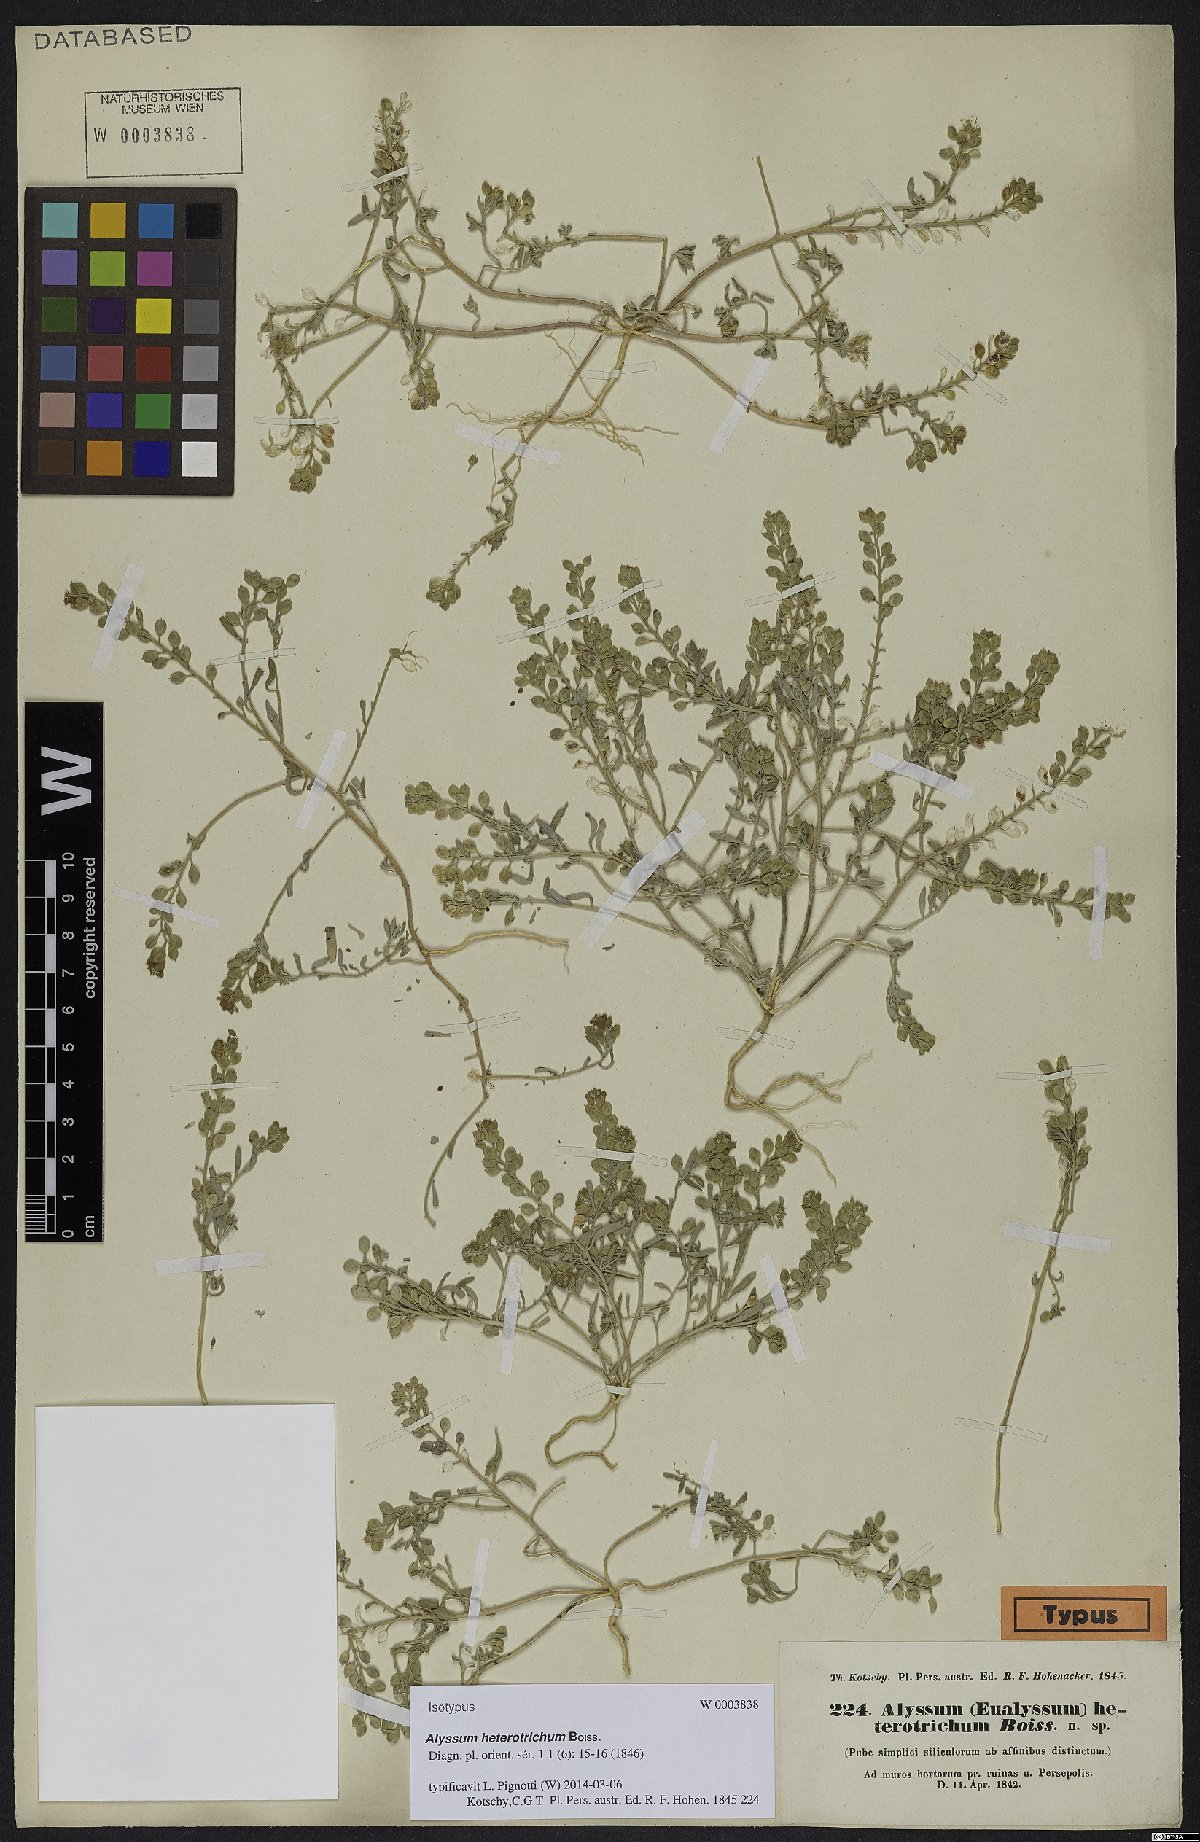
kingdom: Plantae
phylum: Tracheophyta
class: Magnoliopsida
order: Brassicales
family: Brassicaceae
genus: Meniocus
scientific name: Meniocus heterotrichus
